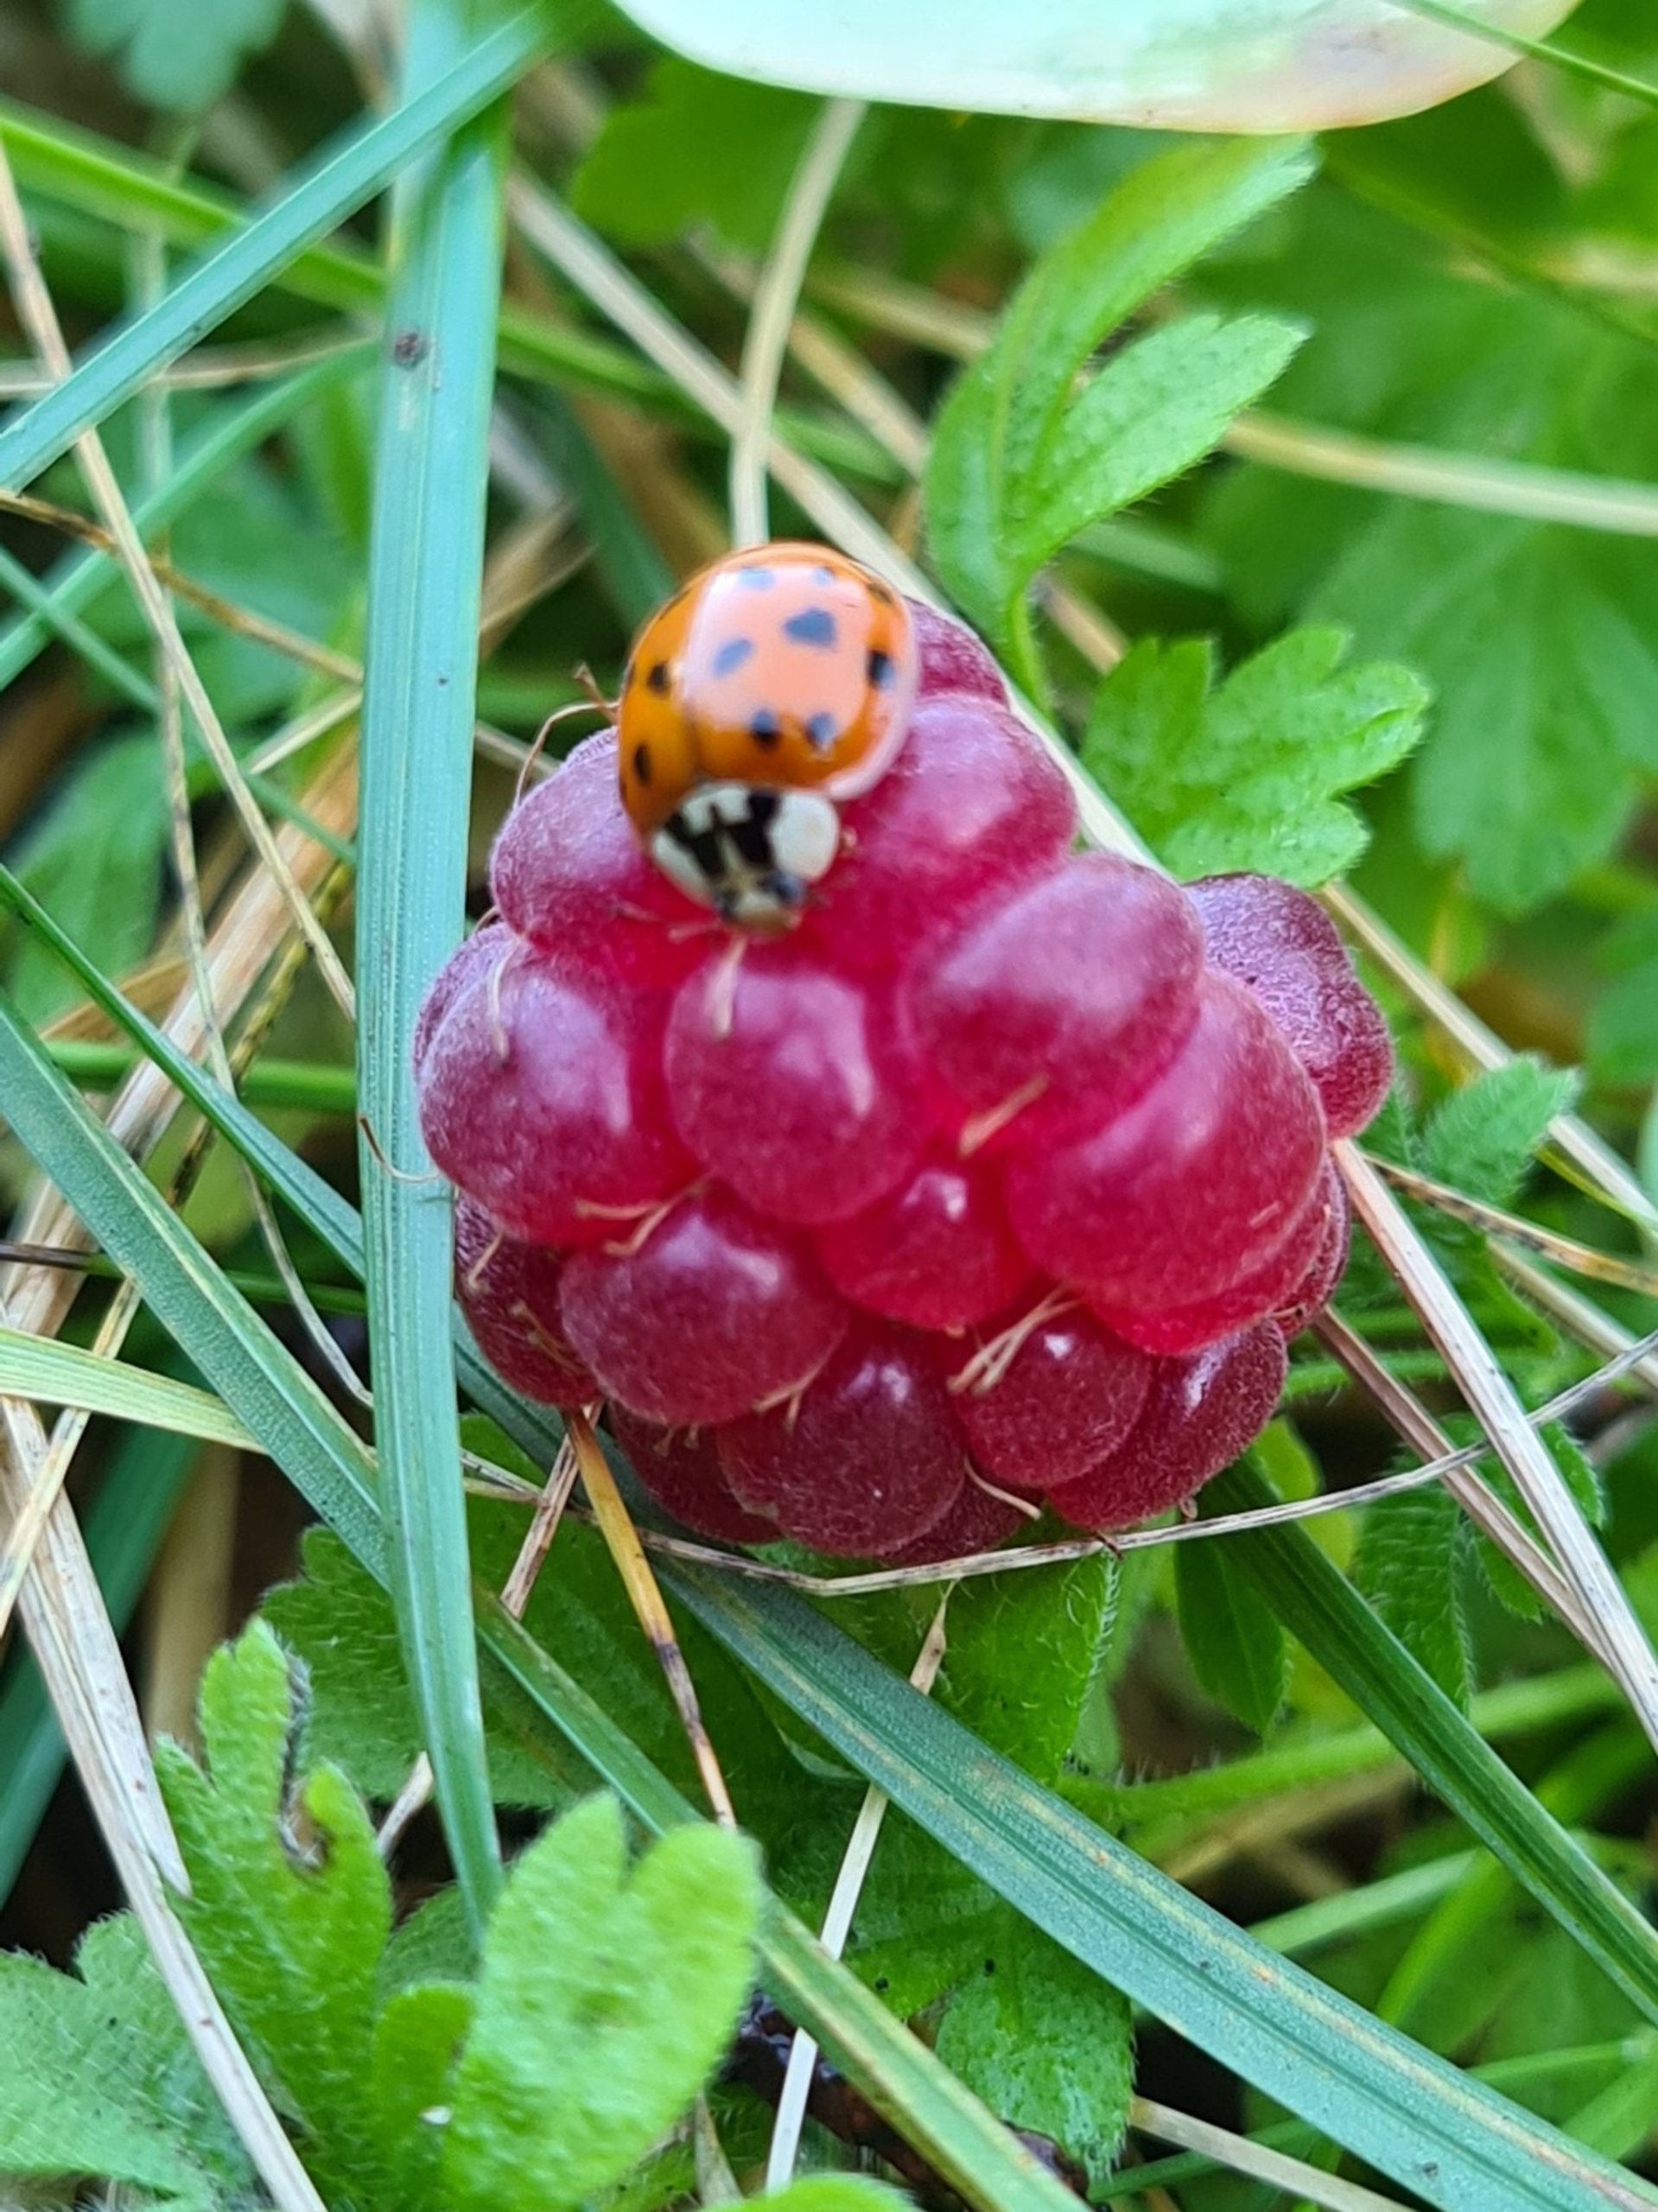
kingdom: Animalia
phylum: Arthropoda
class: Insecta
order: Coleoptera
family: Coccinellidae
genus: Harmonia
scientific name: Harmonia axyridis
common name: Harlekinmariehøne
